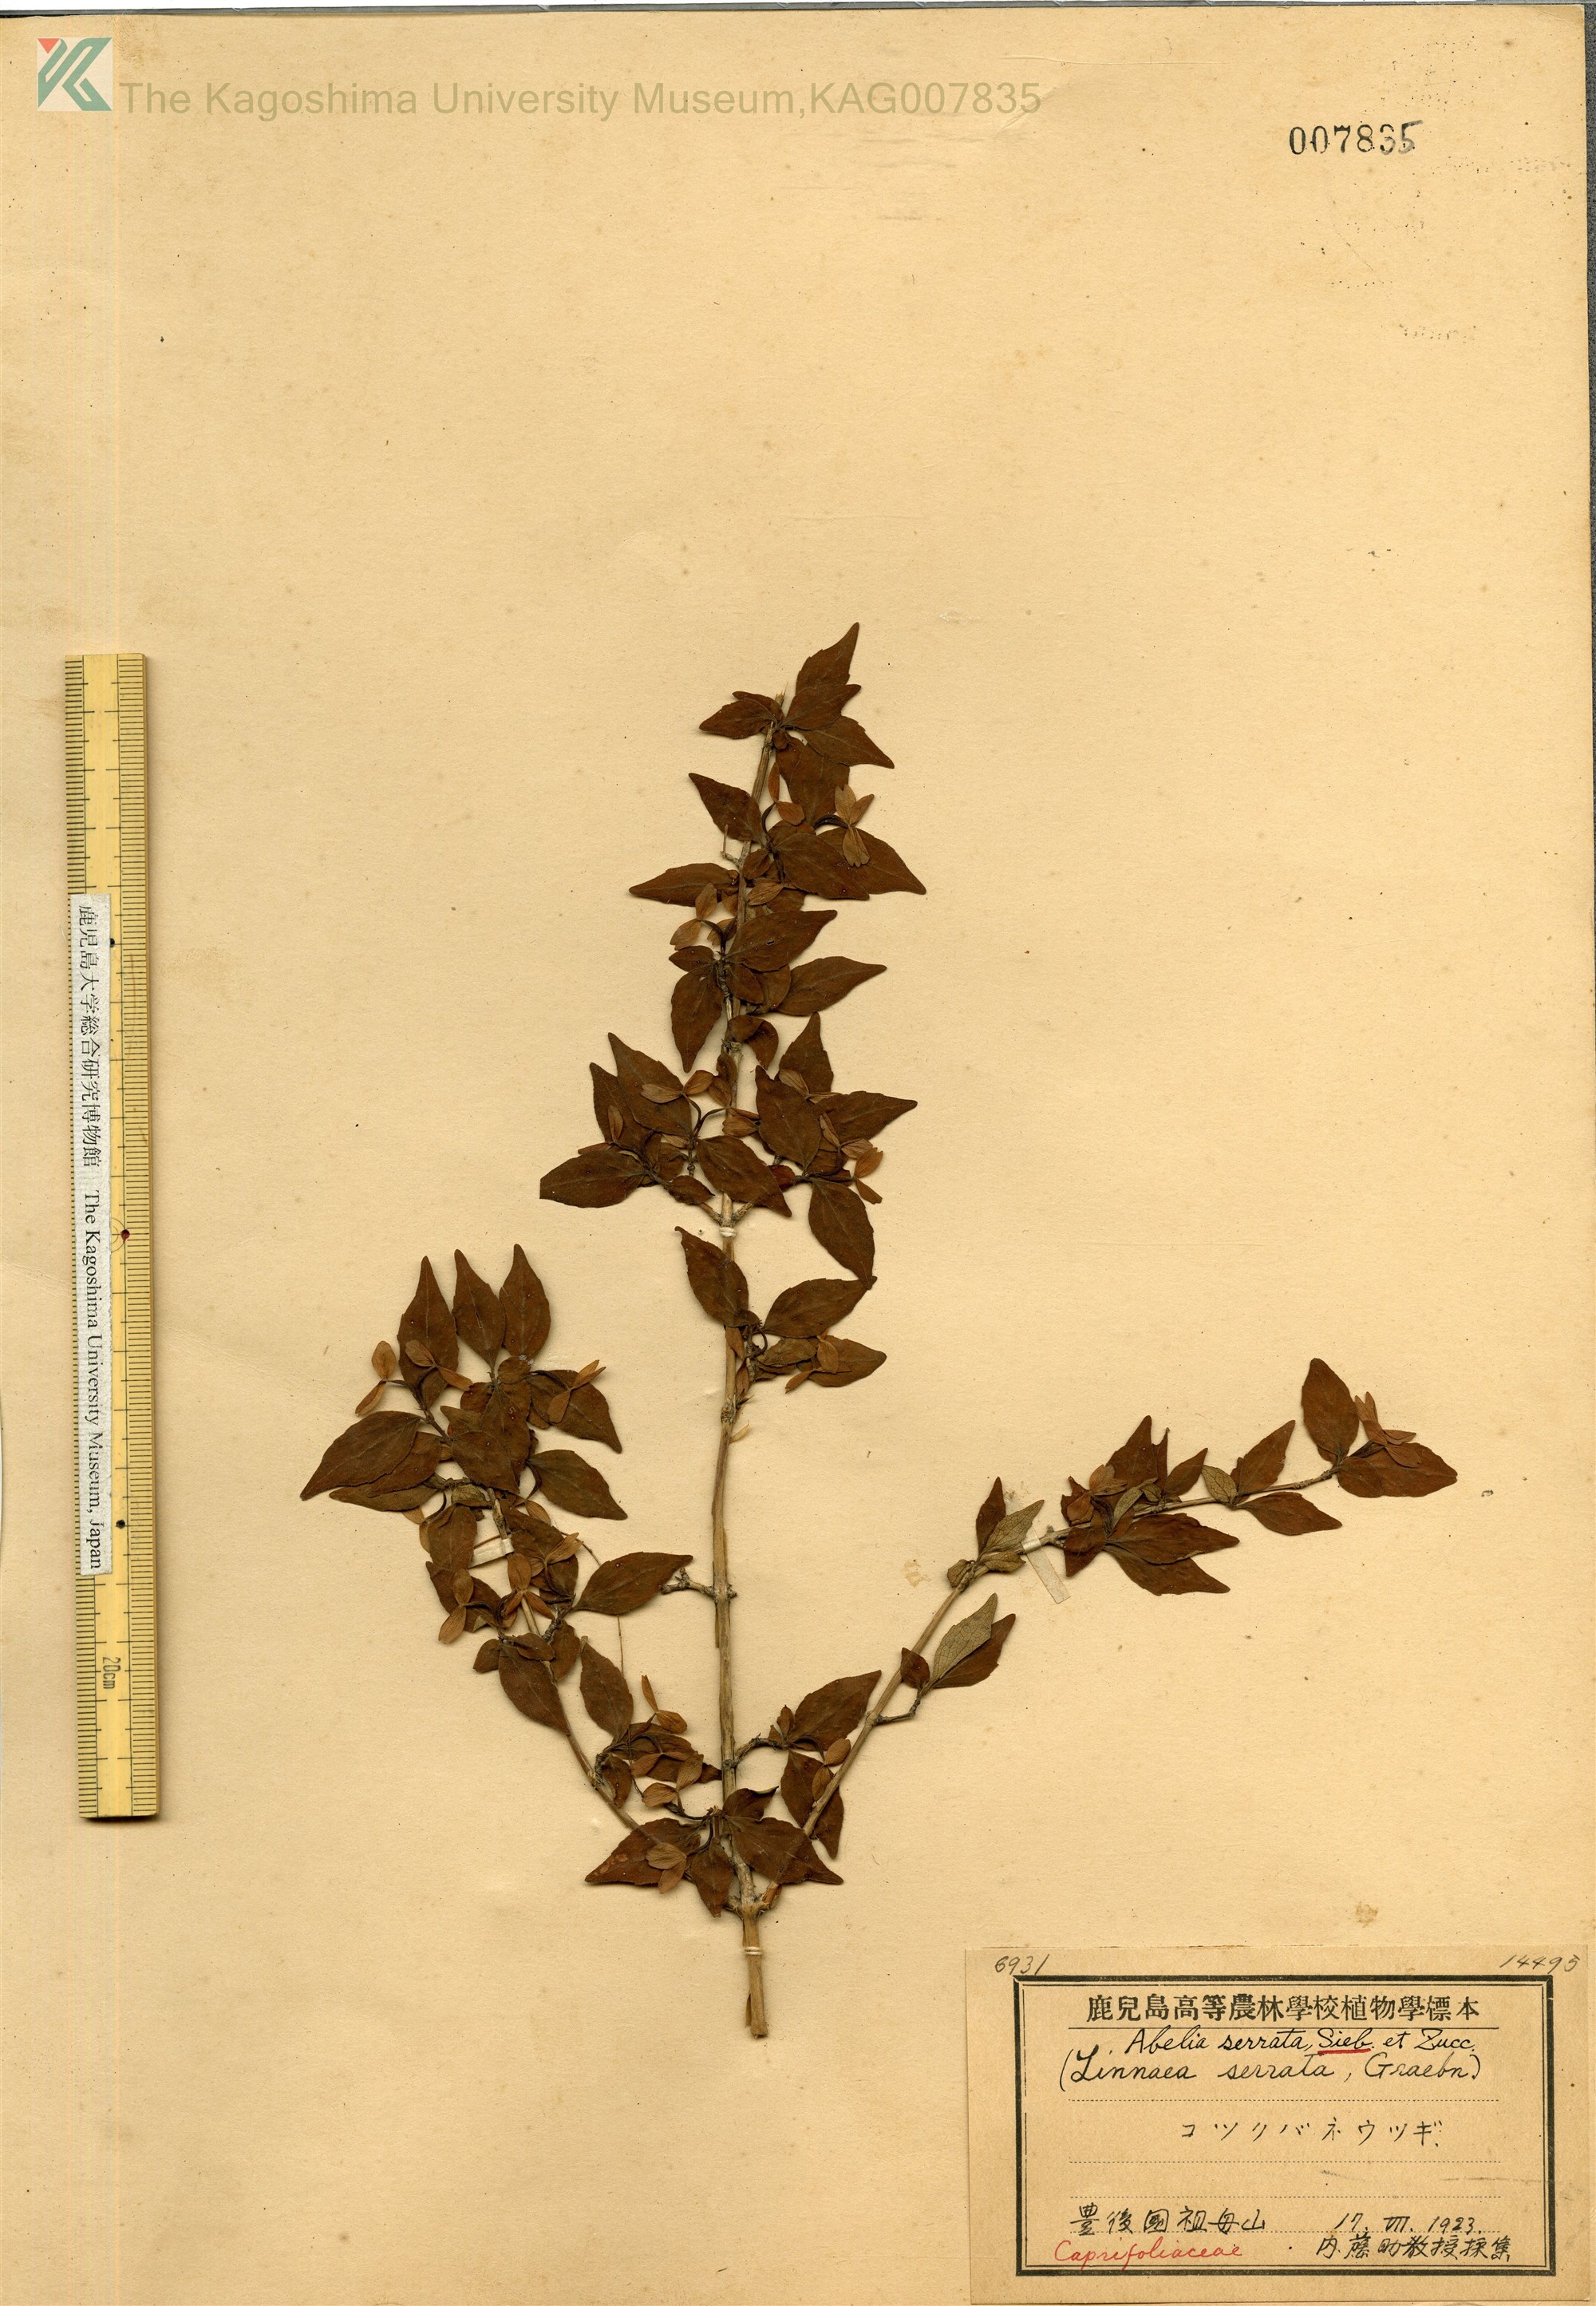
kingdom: Plantae
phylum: Tracheophyta
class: Magnoliopsida
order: Dipsacales
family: Caprifoliaceae
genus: Diabelia
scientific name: Diabelia serrata
